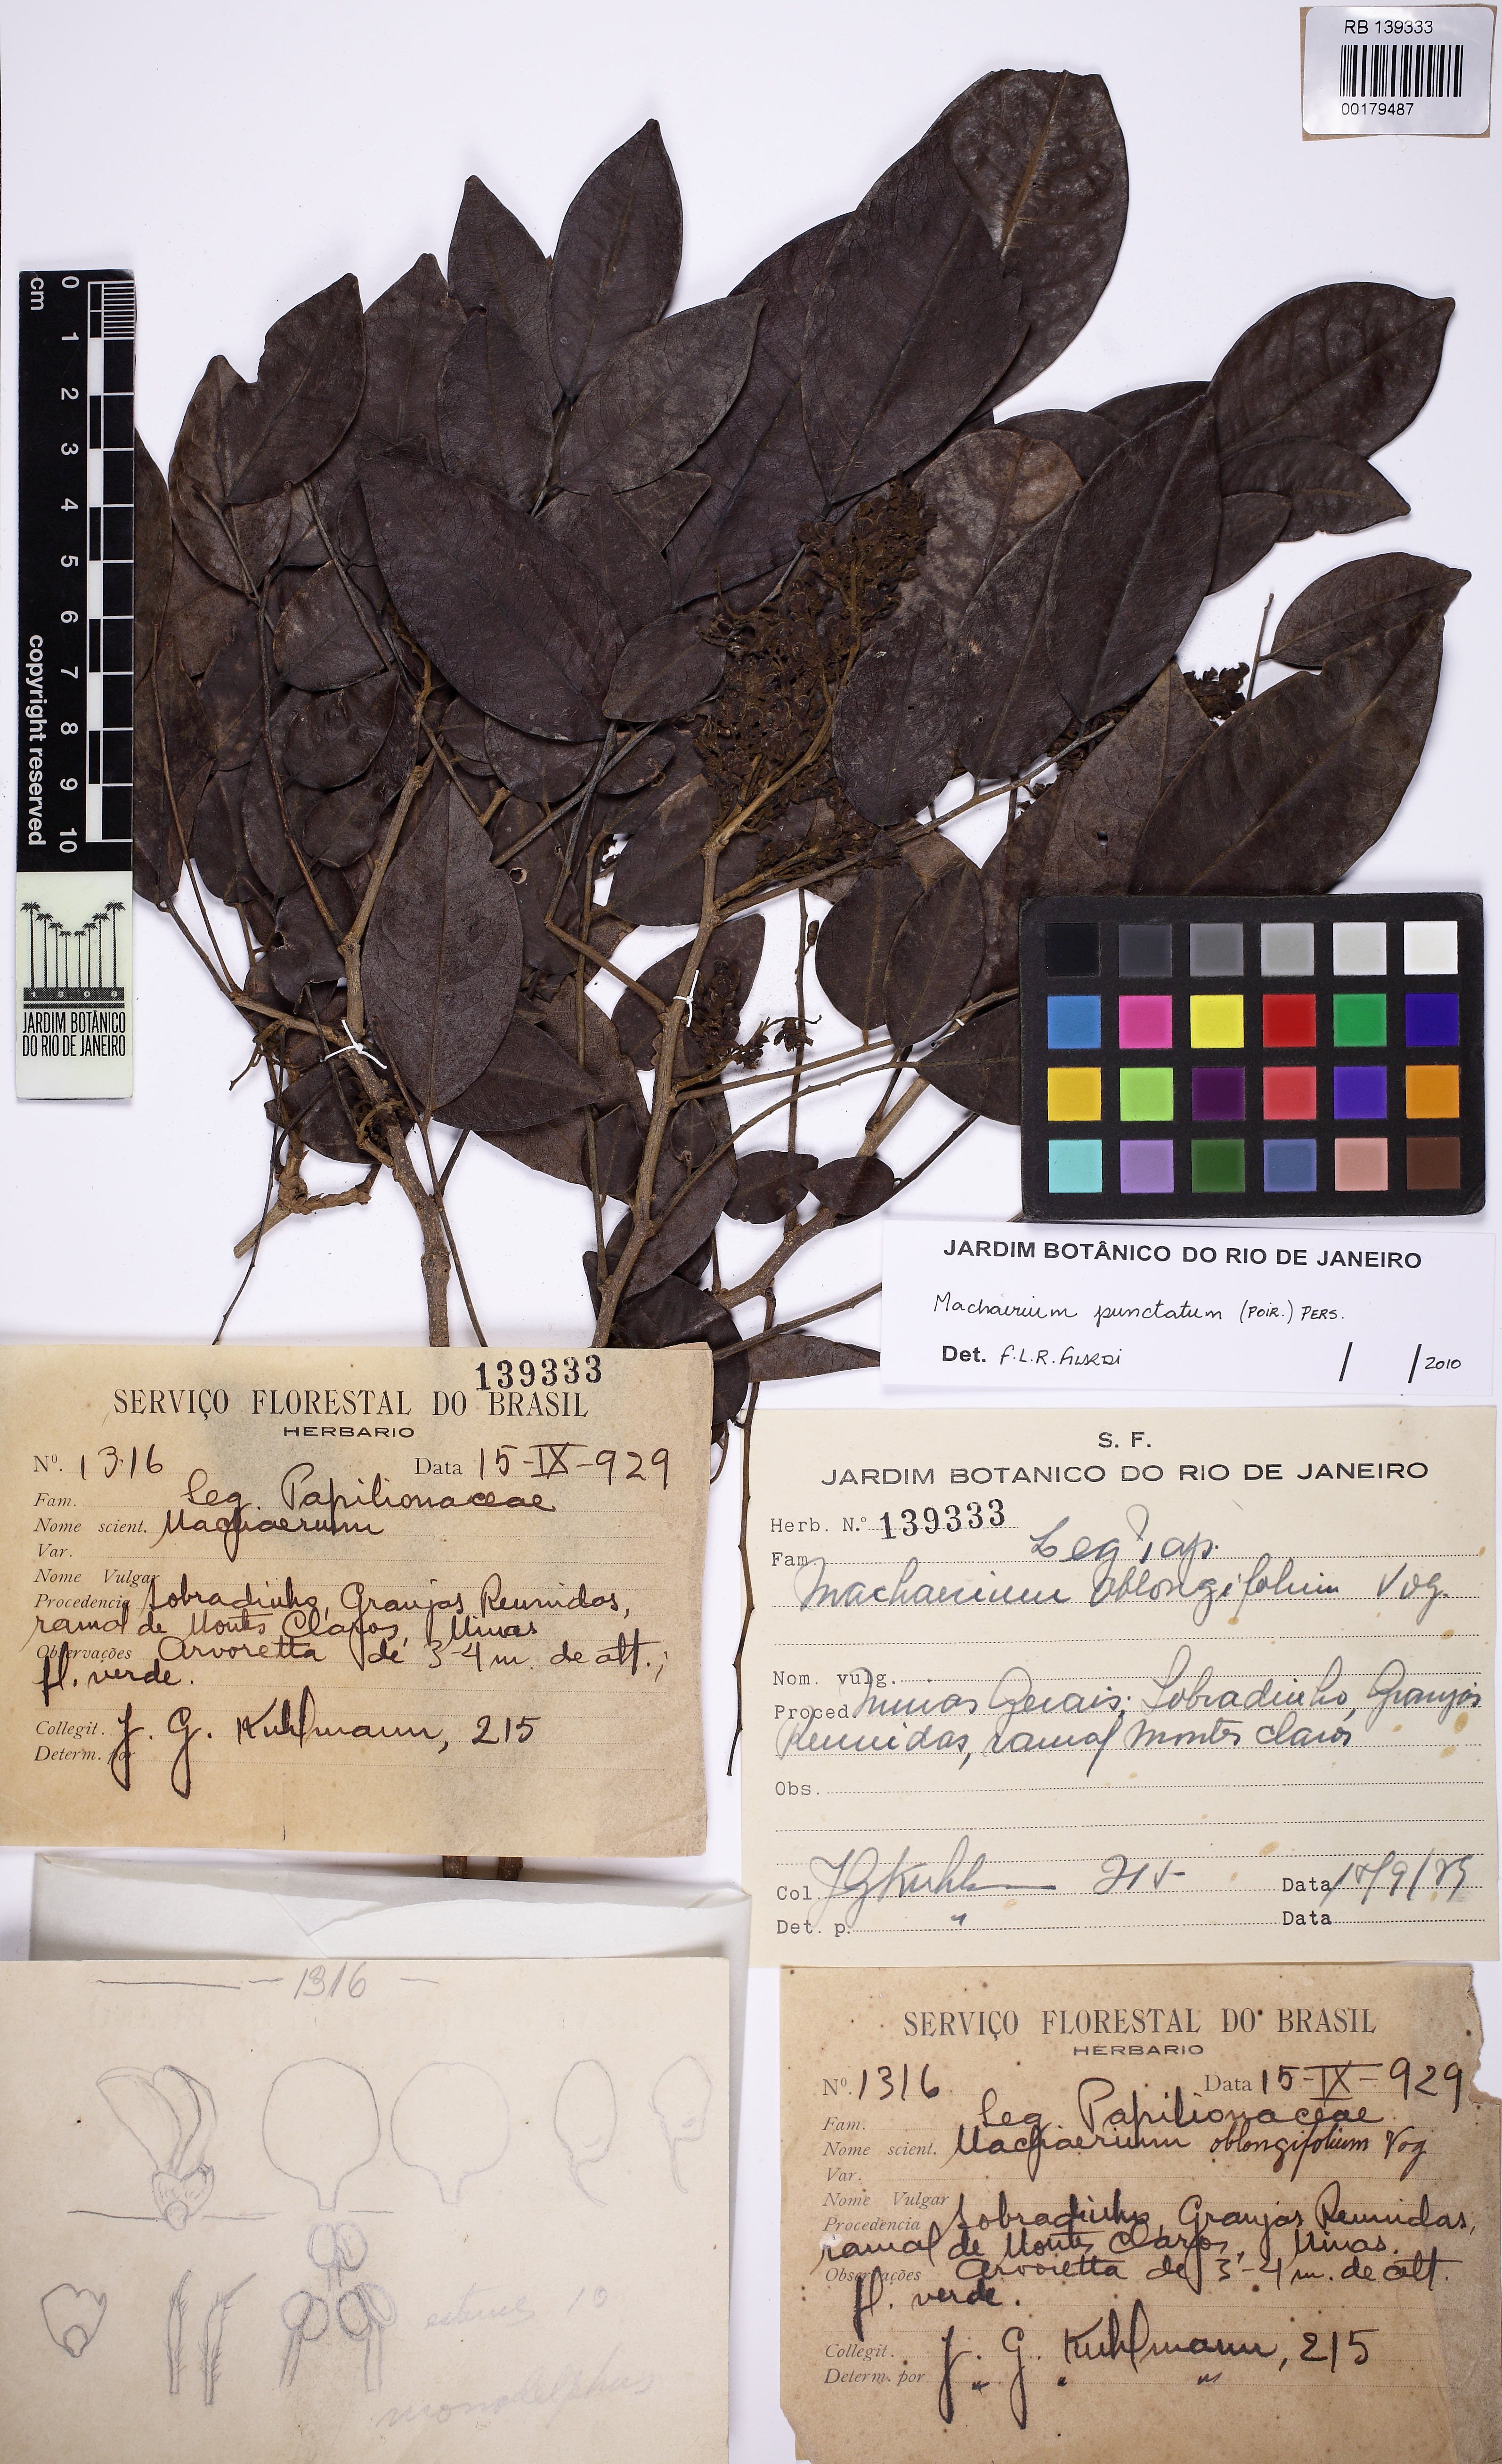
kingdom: Plantae
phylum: Tracheophyta
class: Magnoliopsida
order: Fabales
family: Fabaceae
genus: Machaerium
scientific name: Machaerium punctatum
